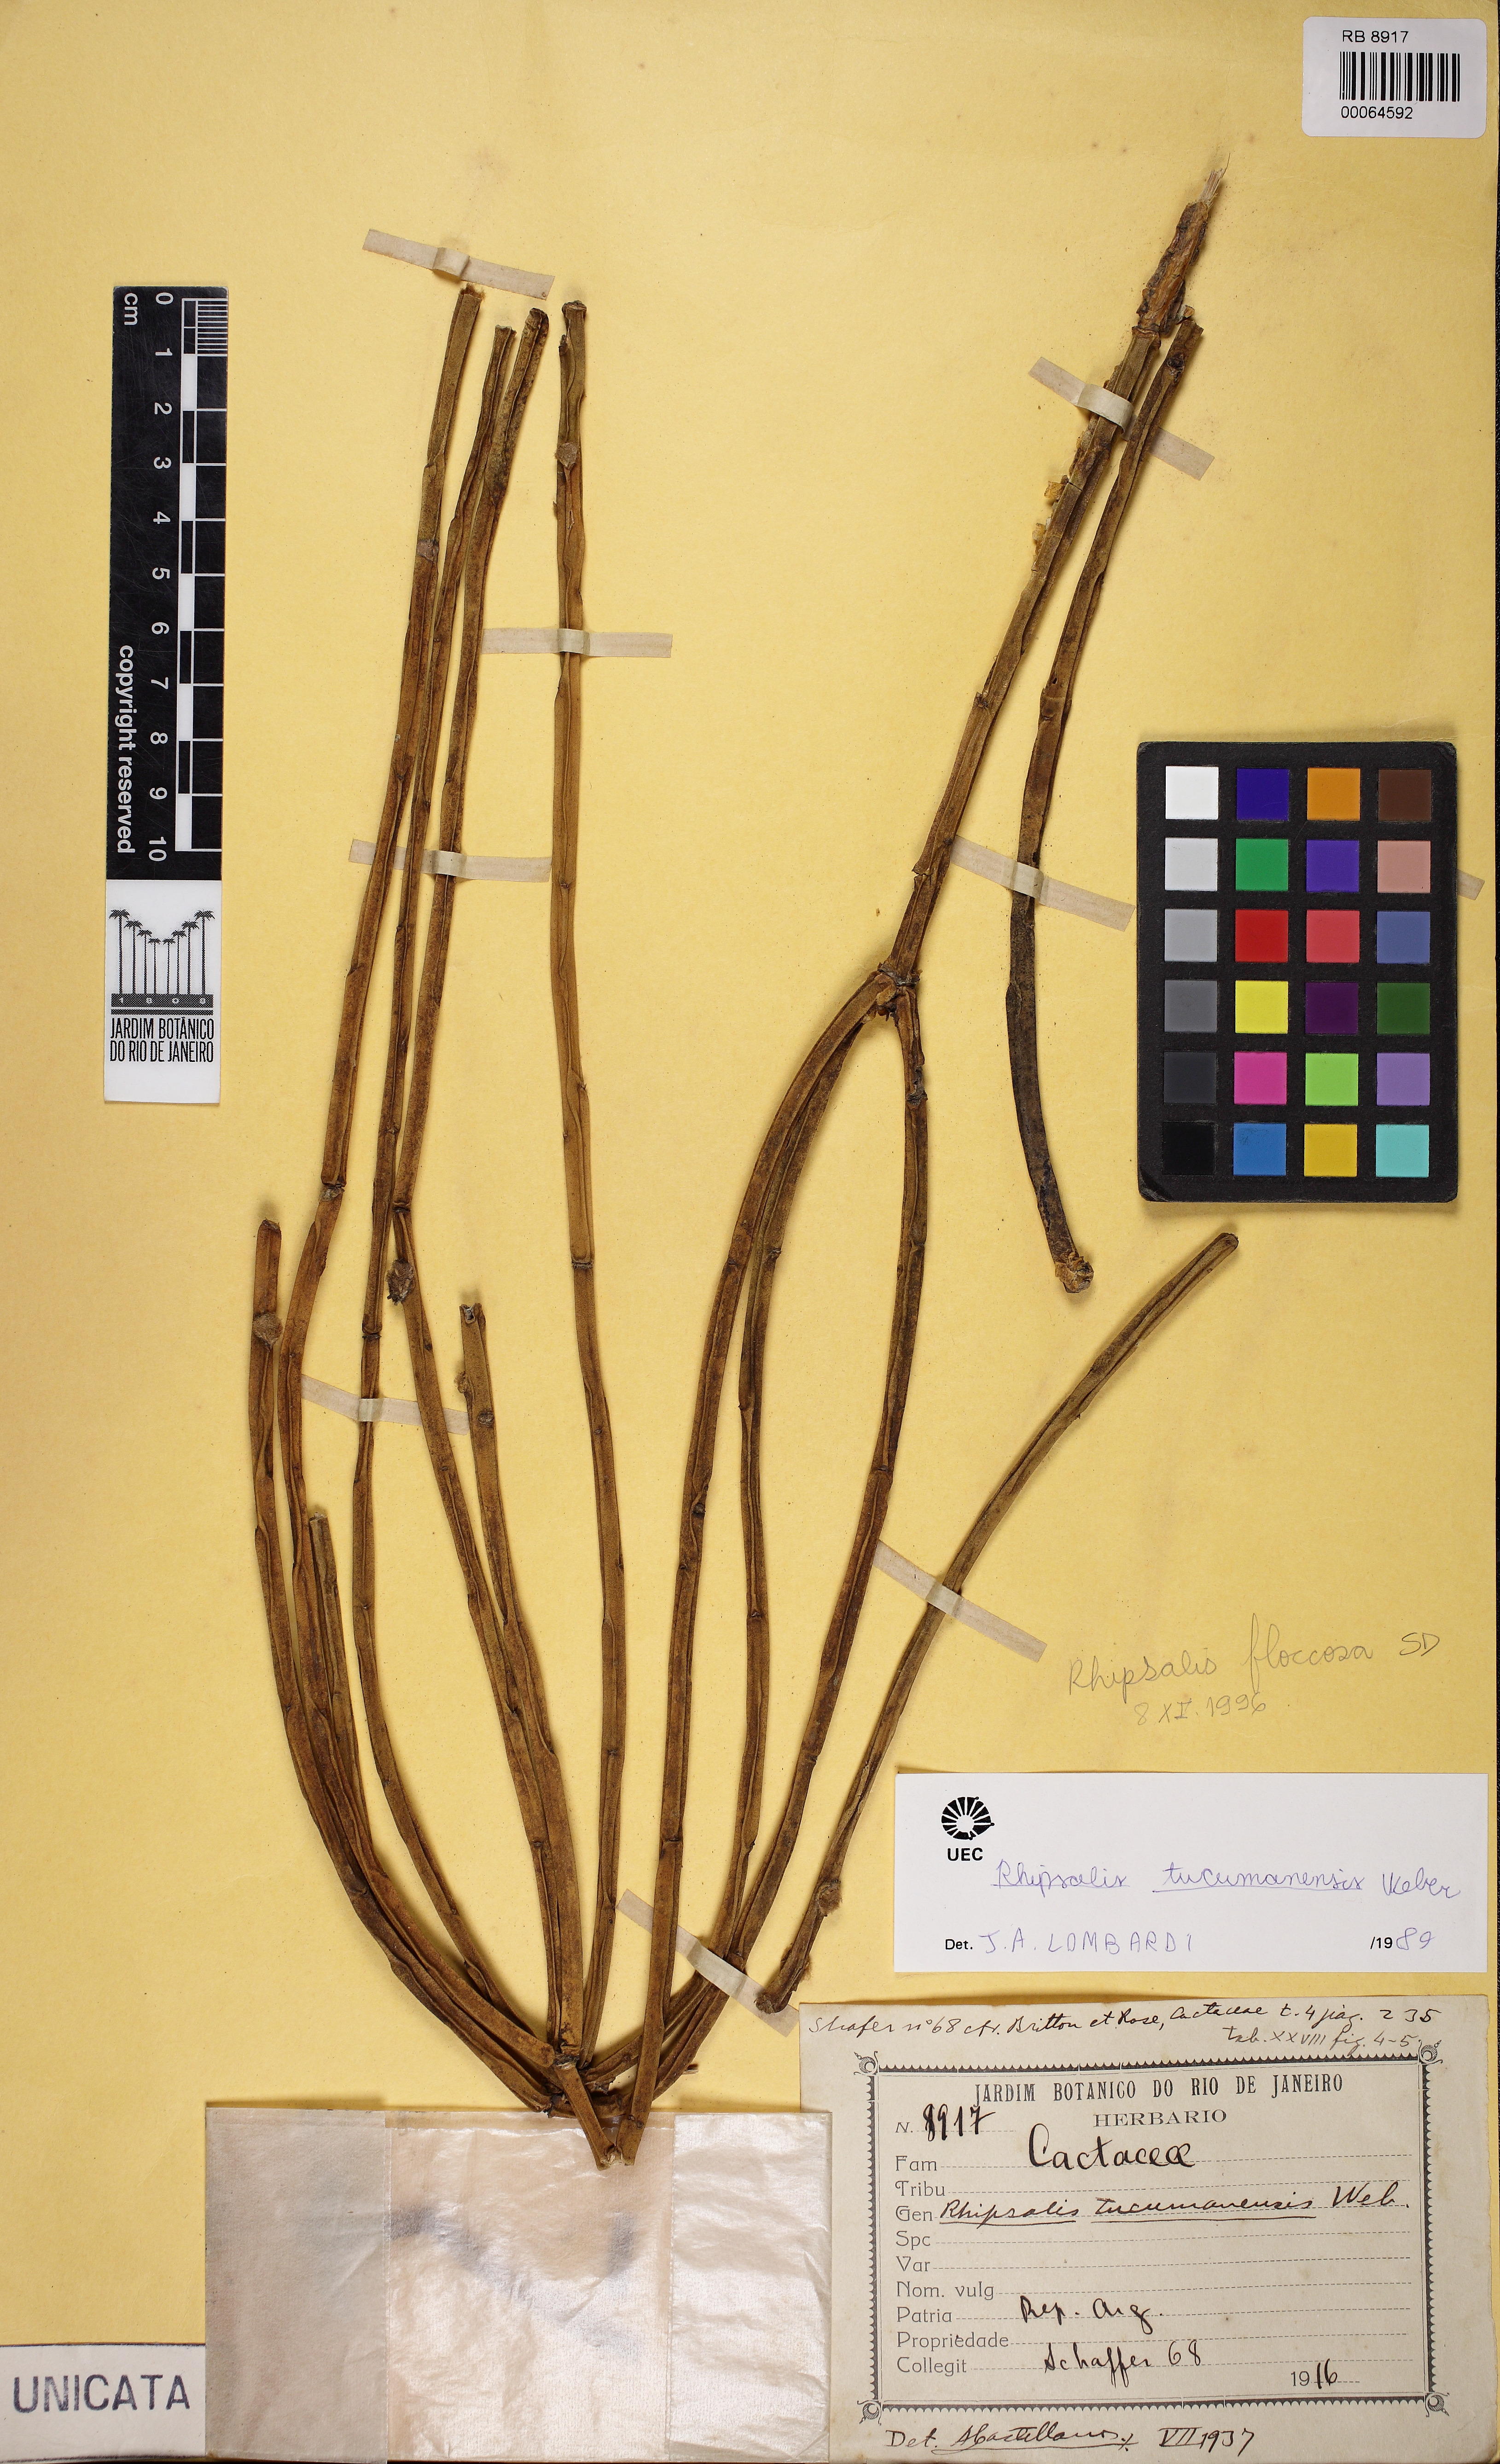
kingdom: Plantae
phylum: Tracheophyta
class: Magnoliopsida
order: Caryophyllales
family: Cactaceae
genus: Rhipsalis
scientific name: Rhipsalis floccosa
